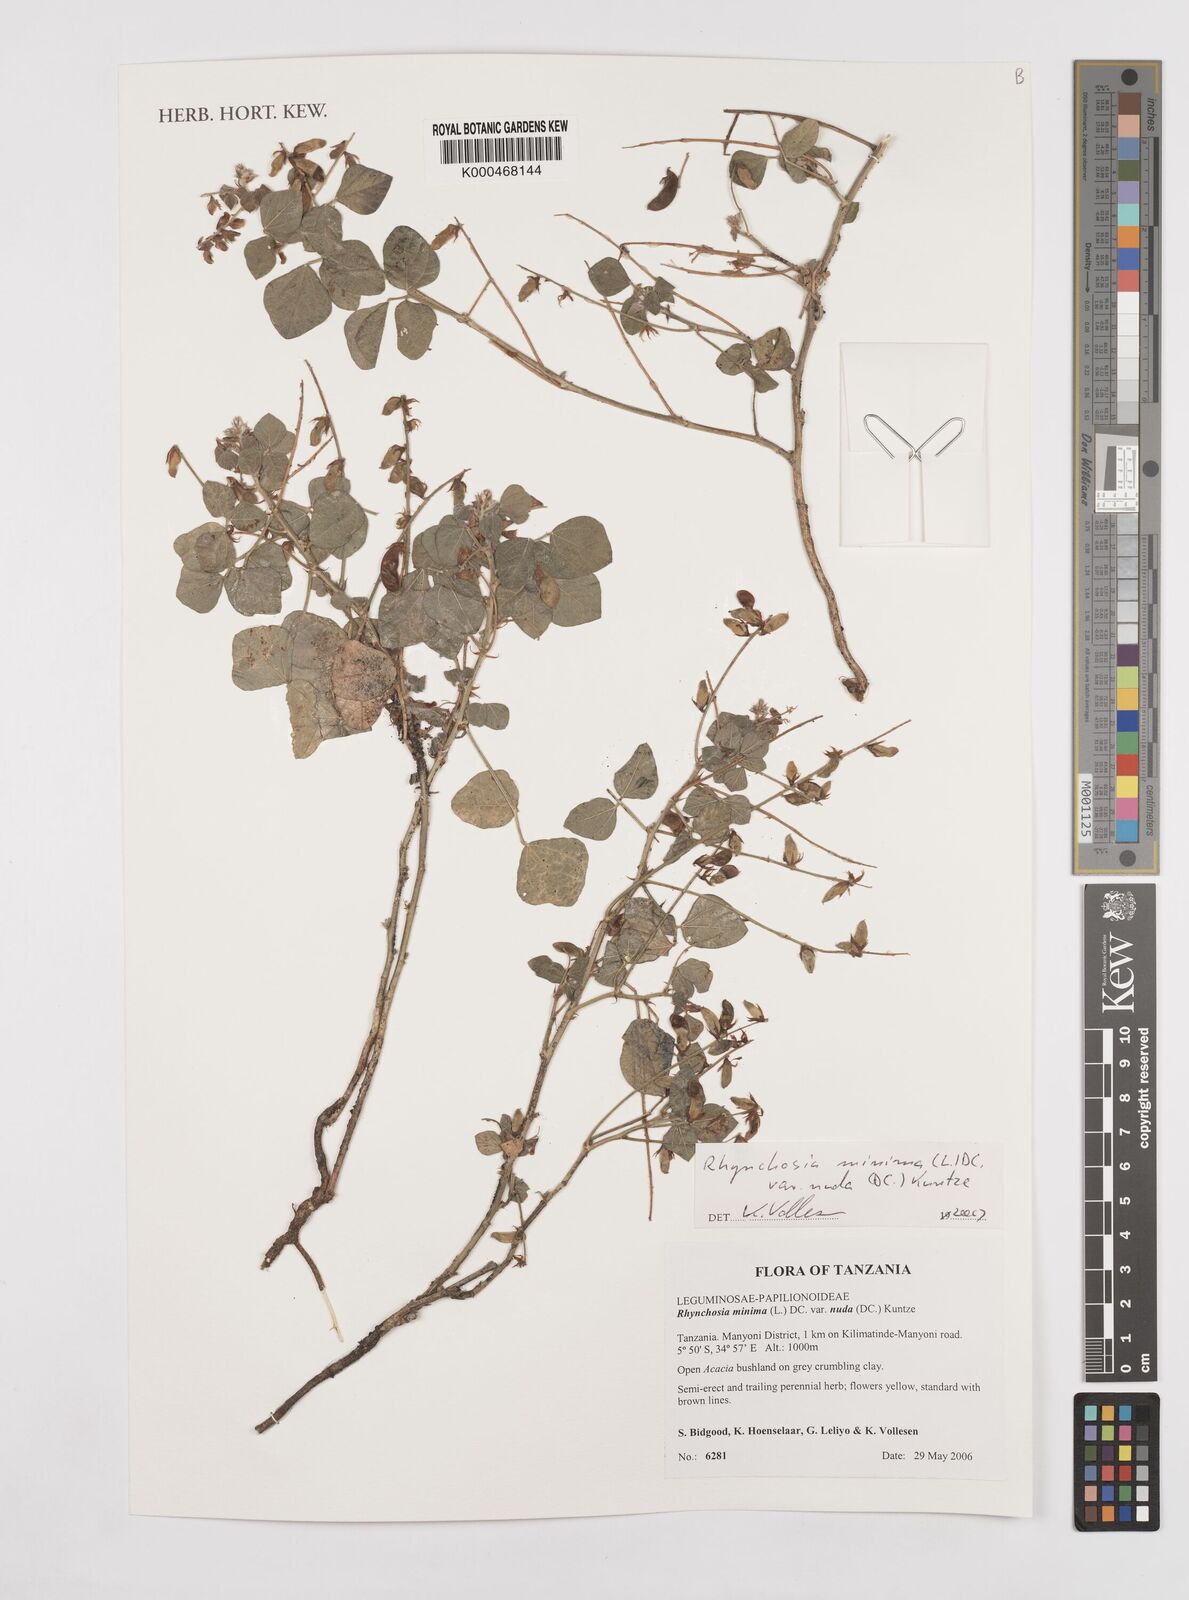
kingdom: Plantae
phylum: Tracheophyta
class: Magnoliopsida
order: Fabales
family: Fabaceae
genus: Rhynchosia
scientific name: Rhynchosia minima
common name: Least snoutbean
